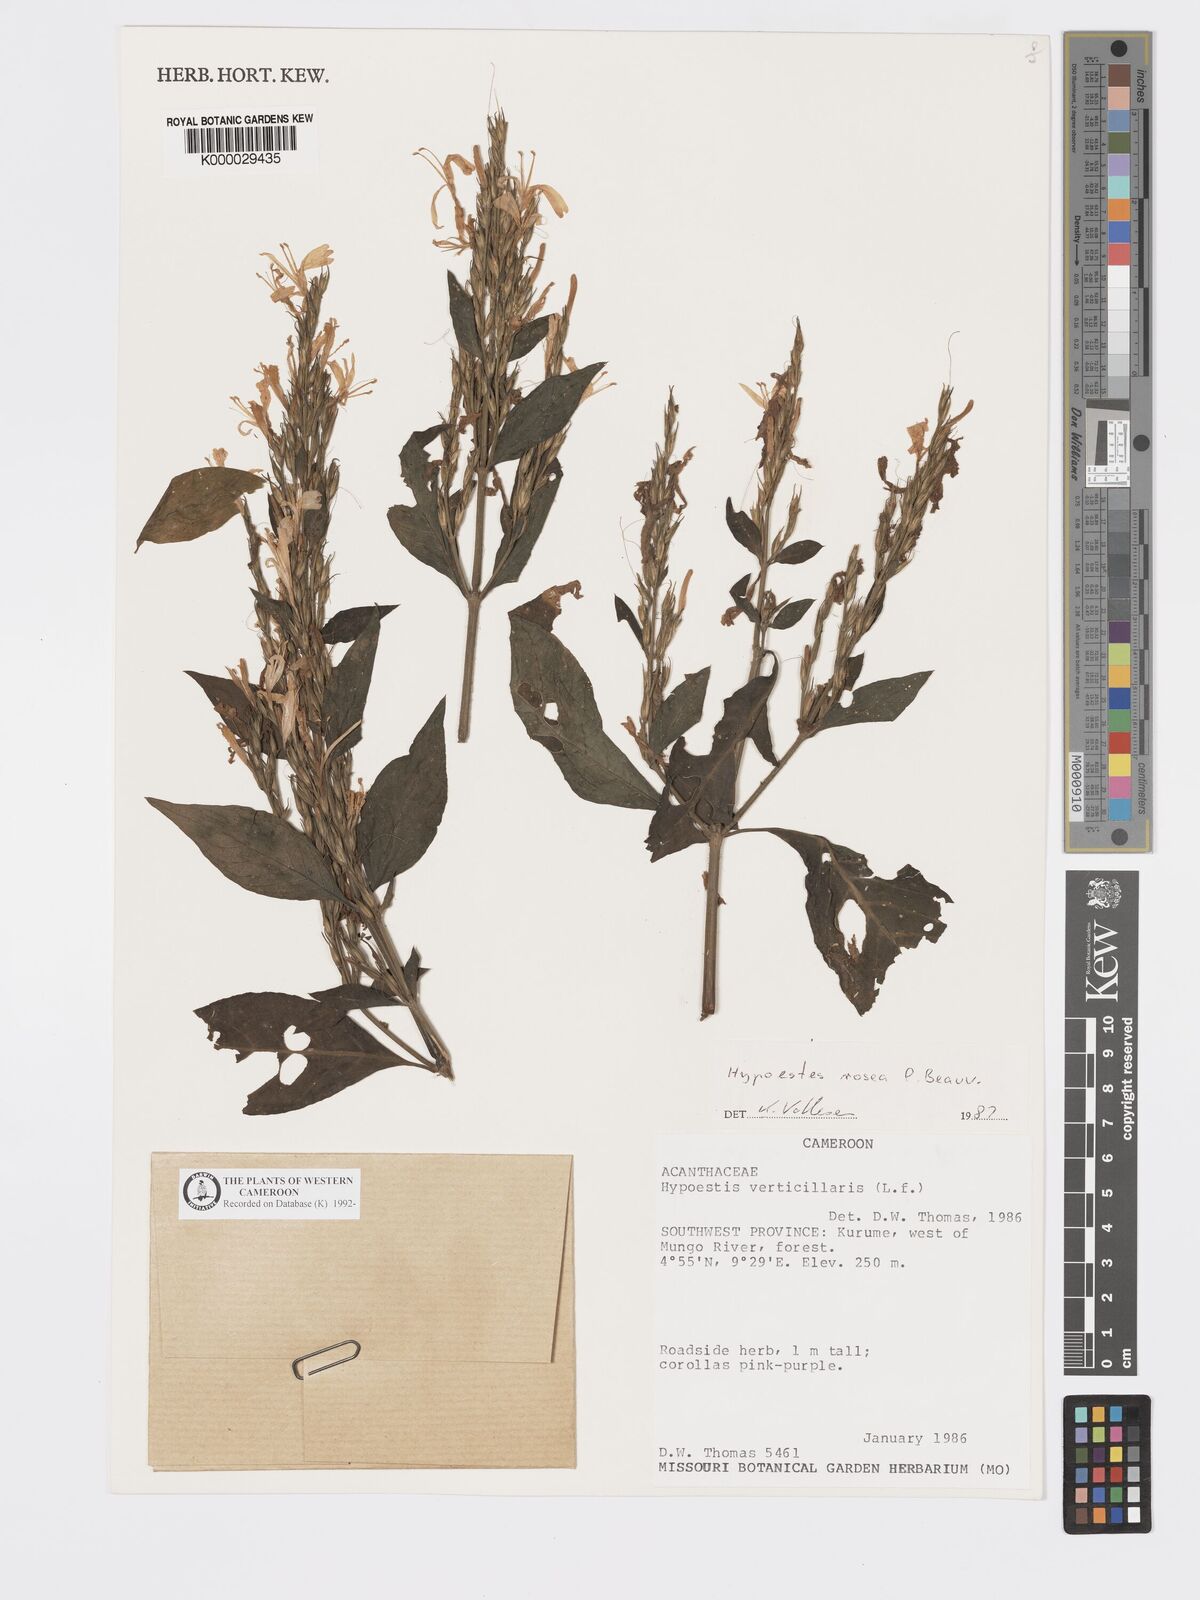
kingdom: Plantae
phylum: Tracheophyta
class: Magnoliopsida
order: Lamiales
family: Acanthaceae
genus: Hypoestes
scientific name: Hypoestes rosea
